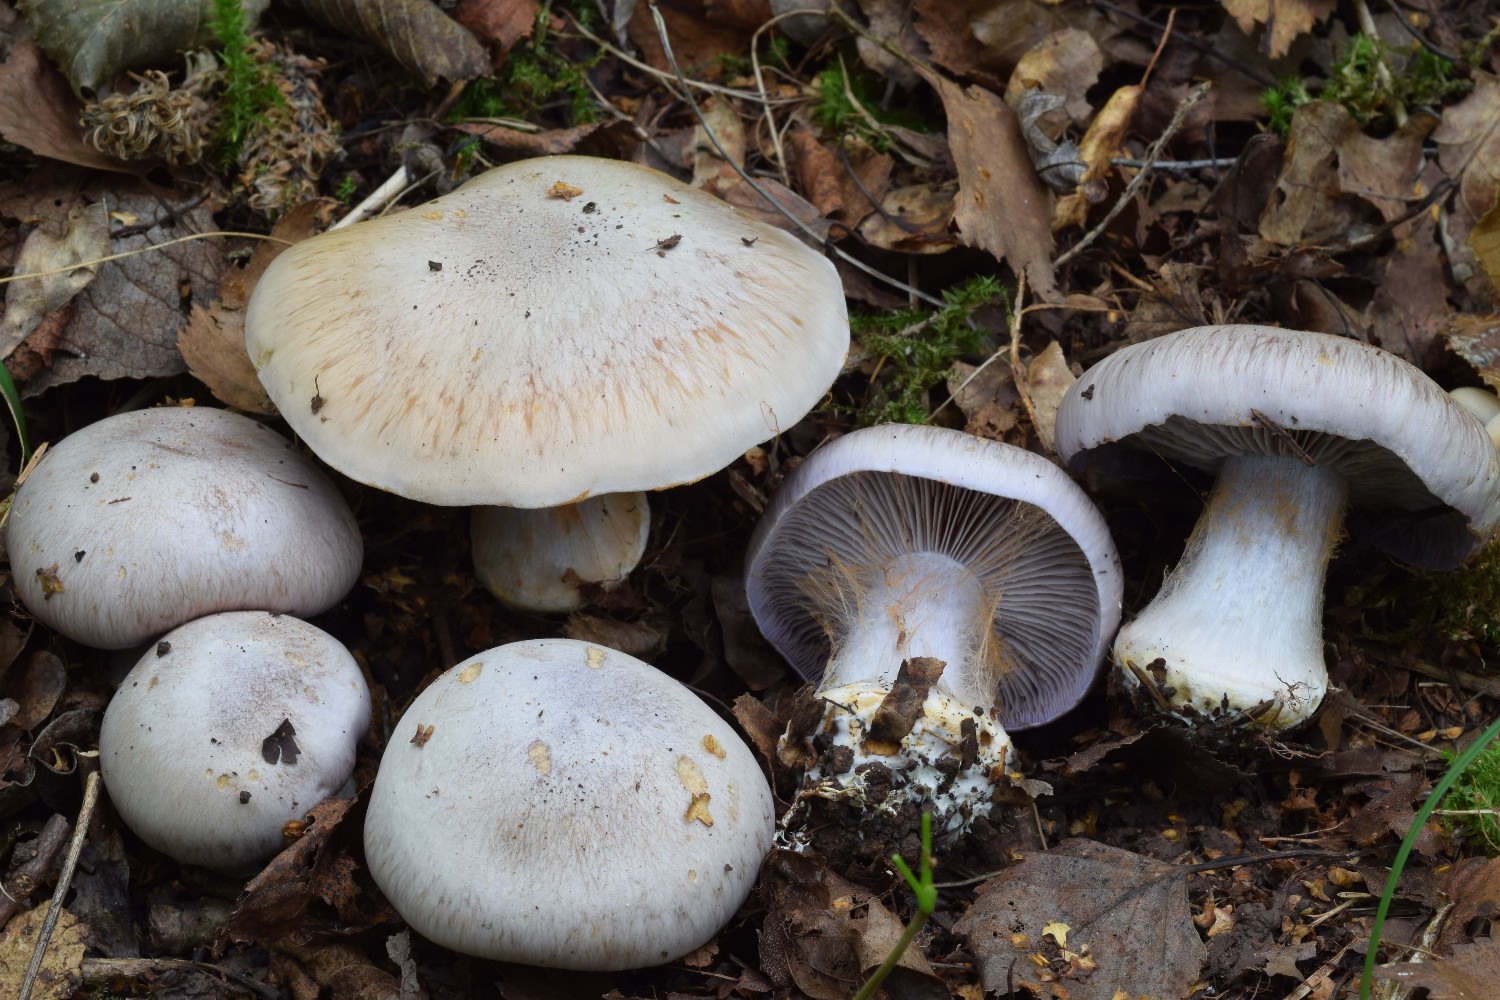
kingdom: Fungi
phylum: Basidiomycota
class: Agaricomycetes
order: Agaricales
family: Cortinariaceae
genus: Phlegmacium
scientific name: Phlegmacium coerulescentium
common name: gråbladet slørhat
